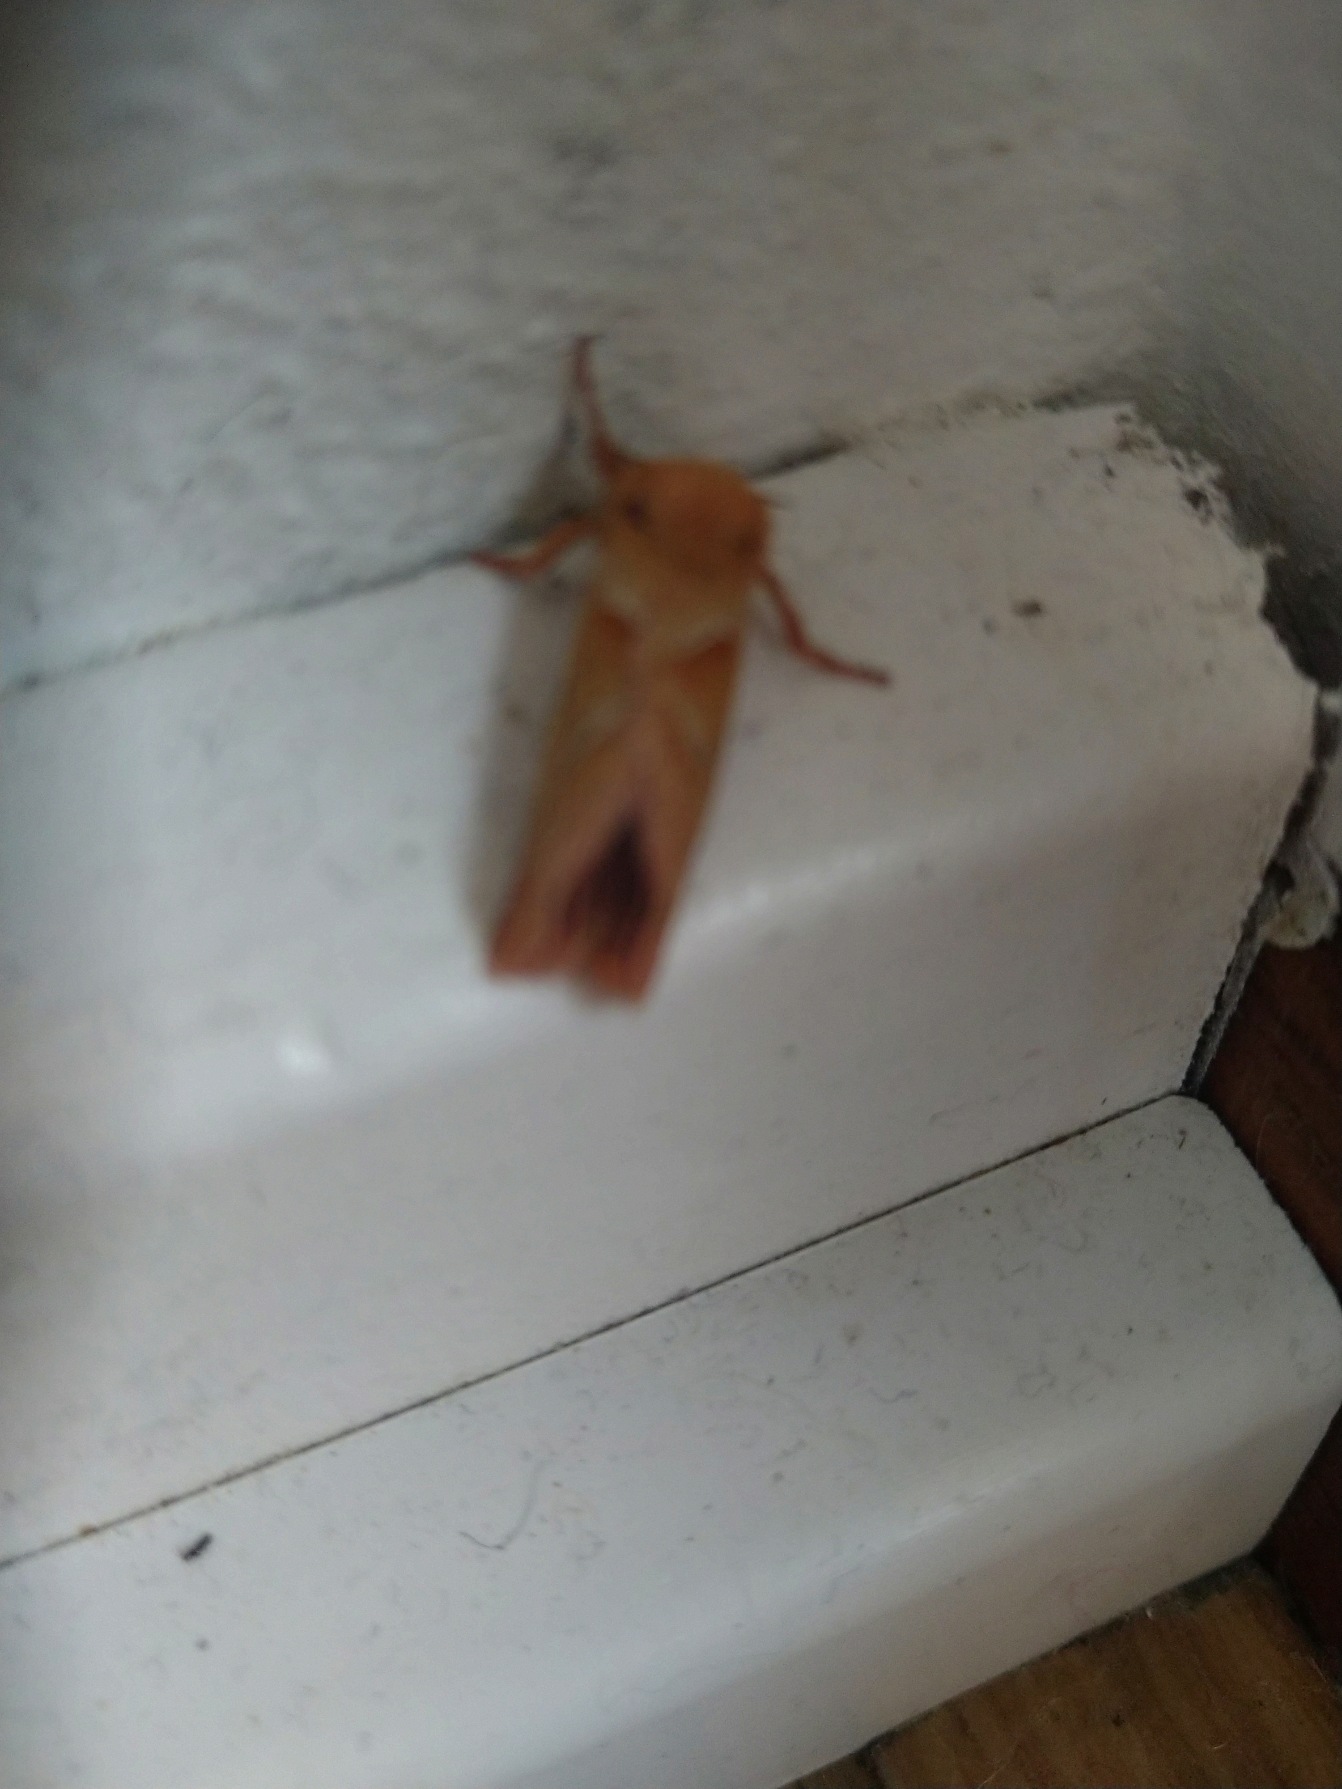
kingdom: Animalia
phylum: Arthropoda
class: Insecta
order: Lepidoptera
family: Hepialidae
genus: Triodia
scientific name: Triodia sylvina
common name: Skræpperodæder
